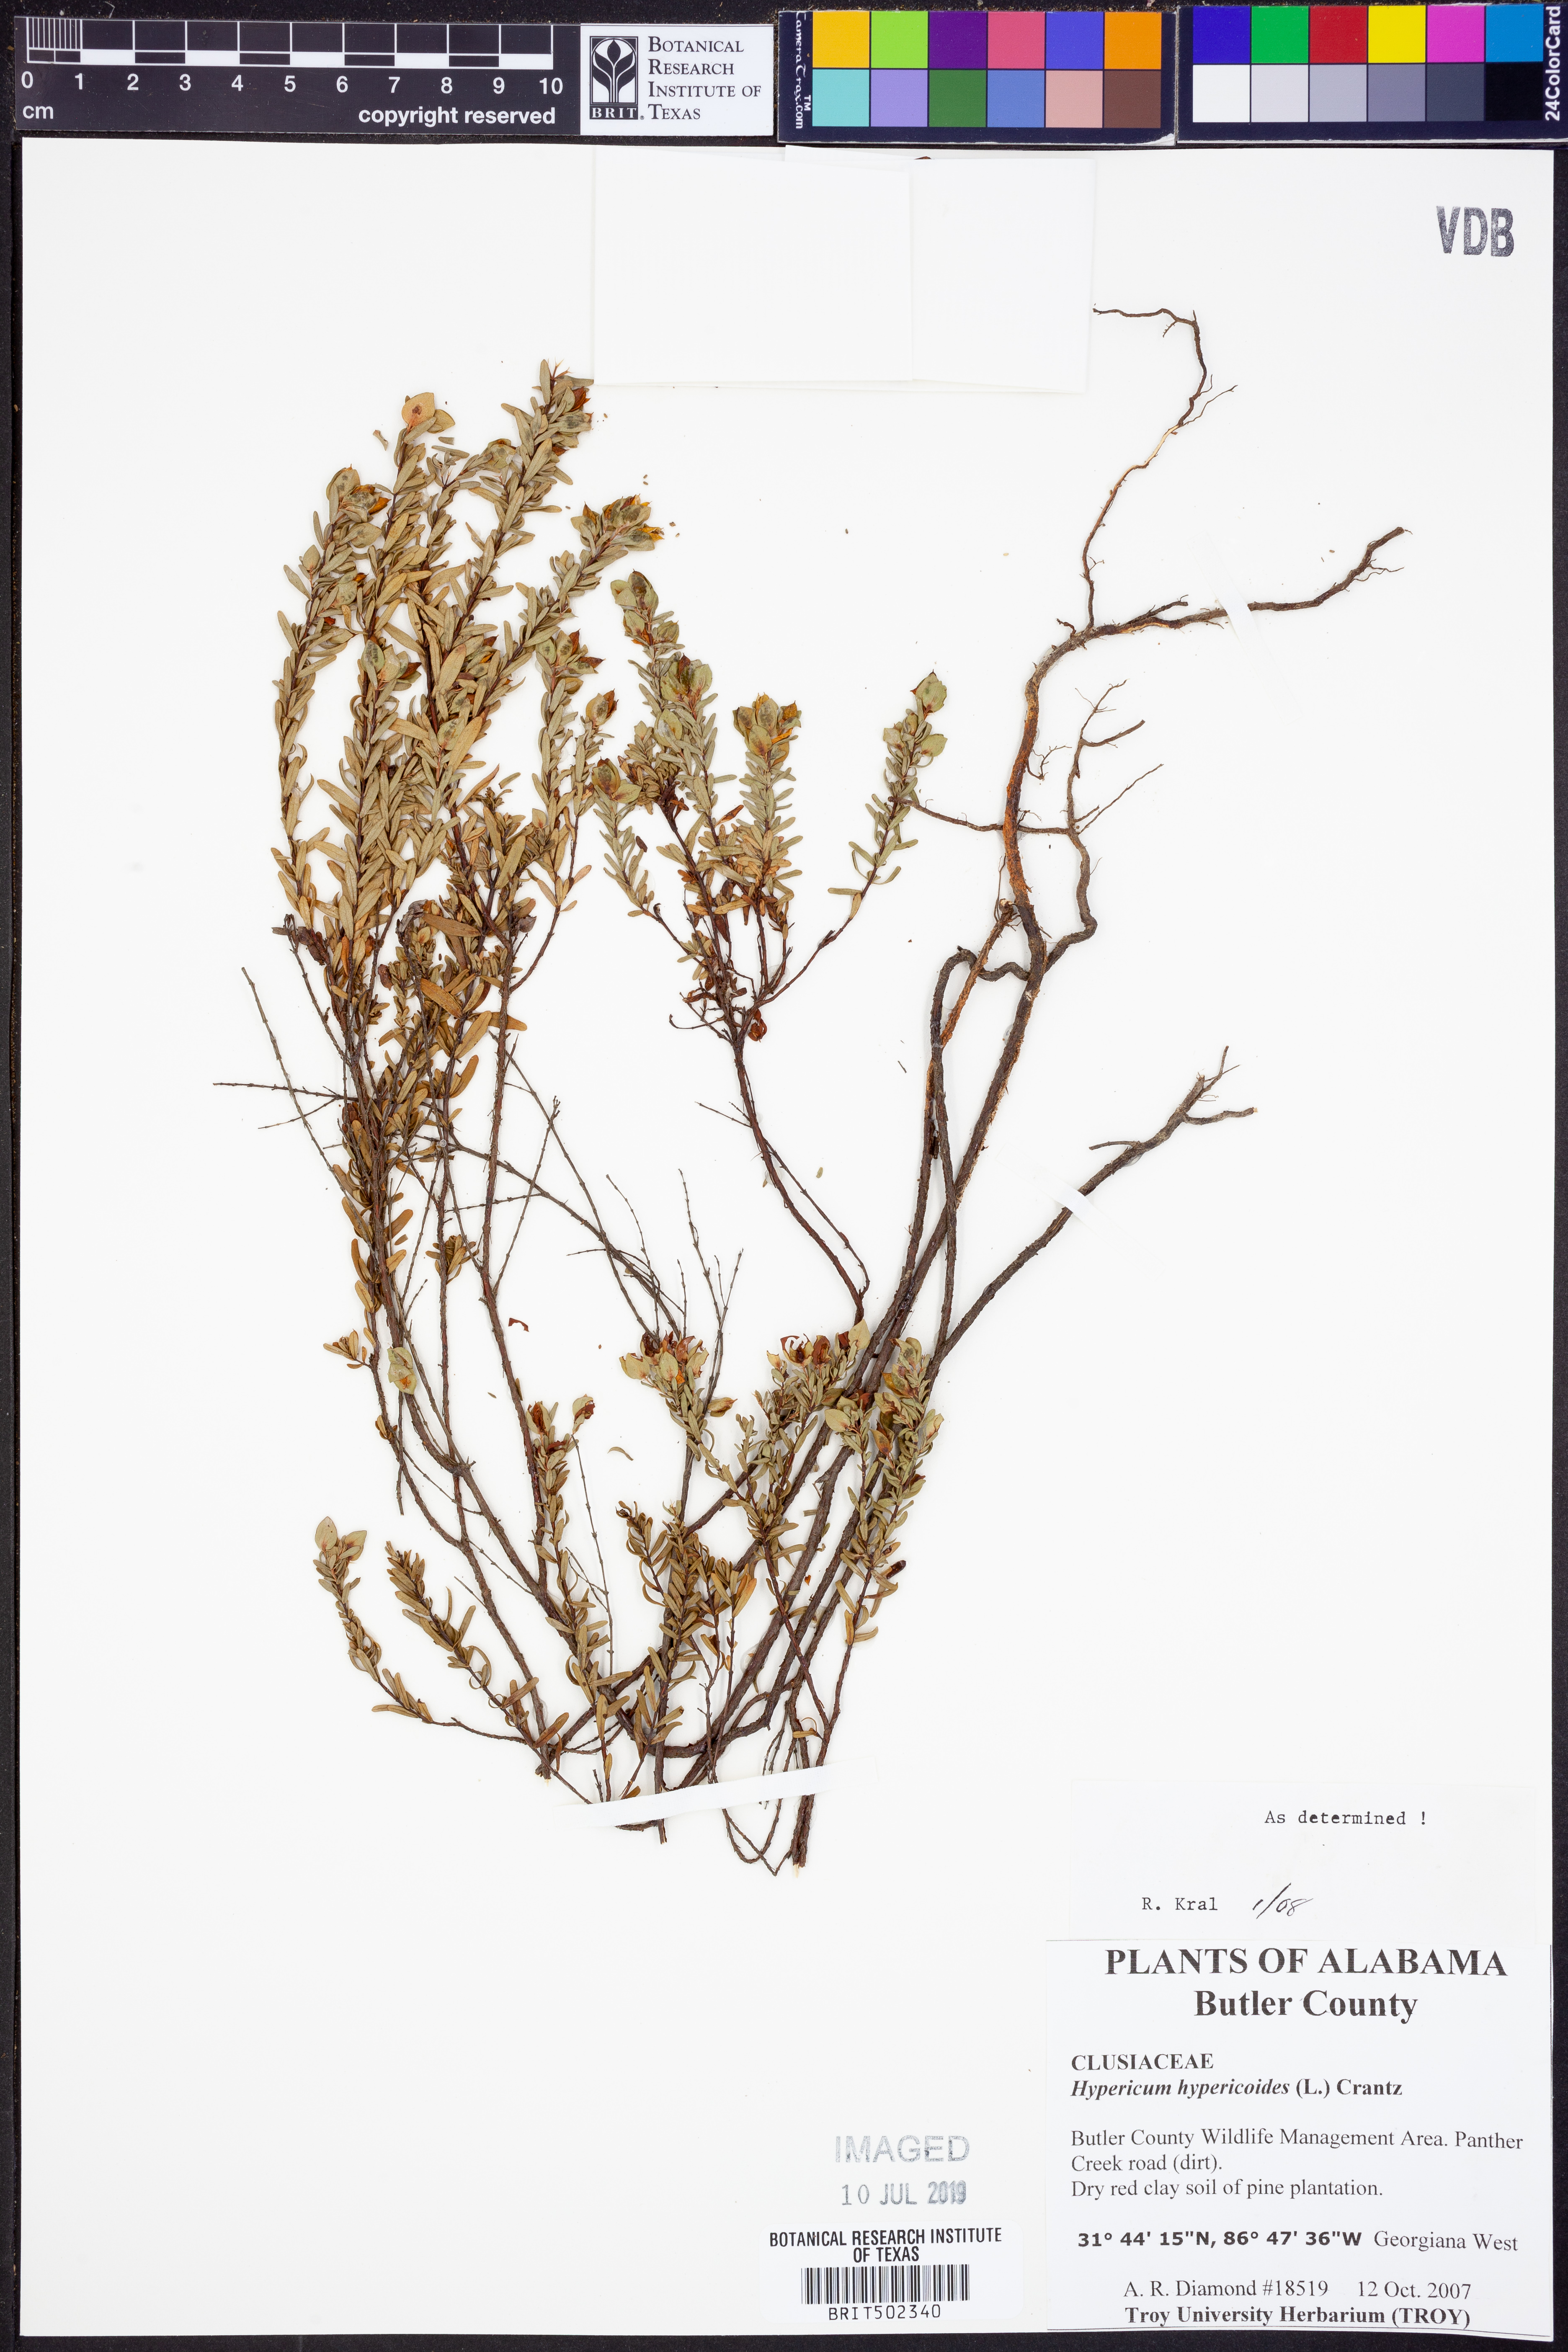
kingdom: Plantae
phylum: Tracheophyta
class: Magnoliopsida
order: Malpighiales
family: Hypericaceae
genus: Hypericum
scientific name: Hypericum hypericoides
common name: St. andrew's cross
